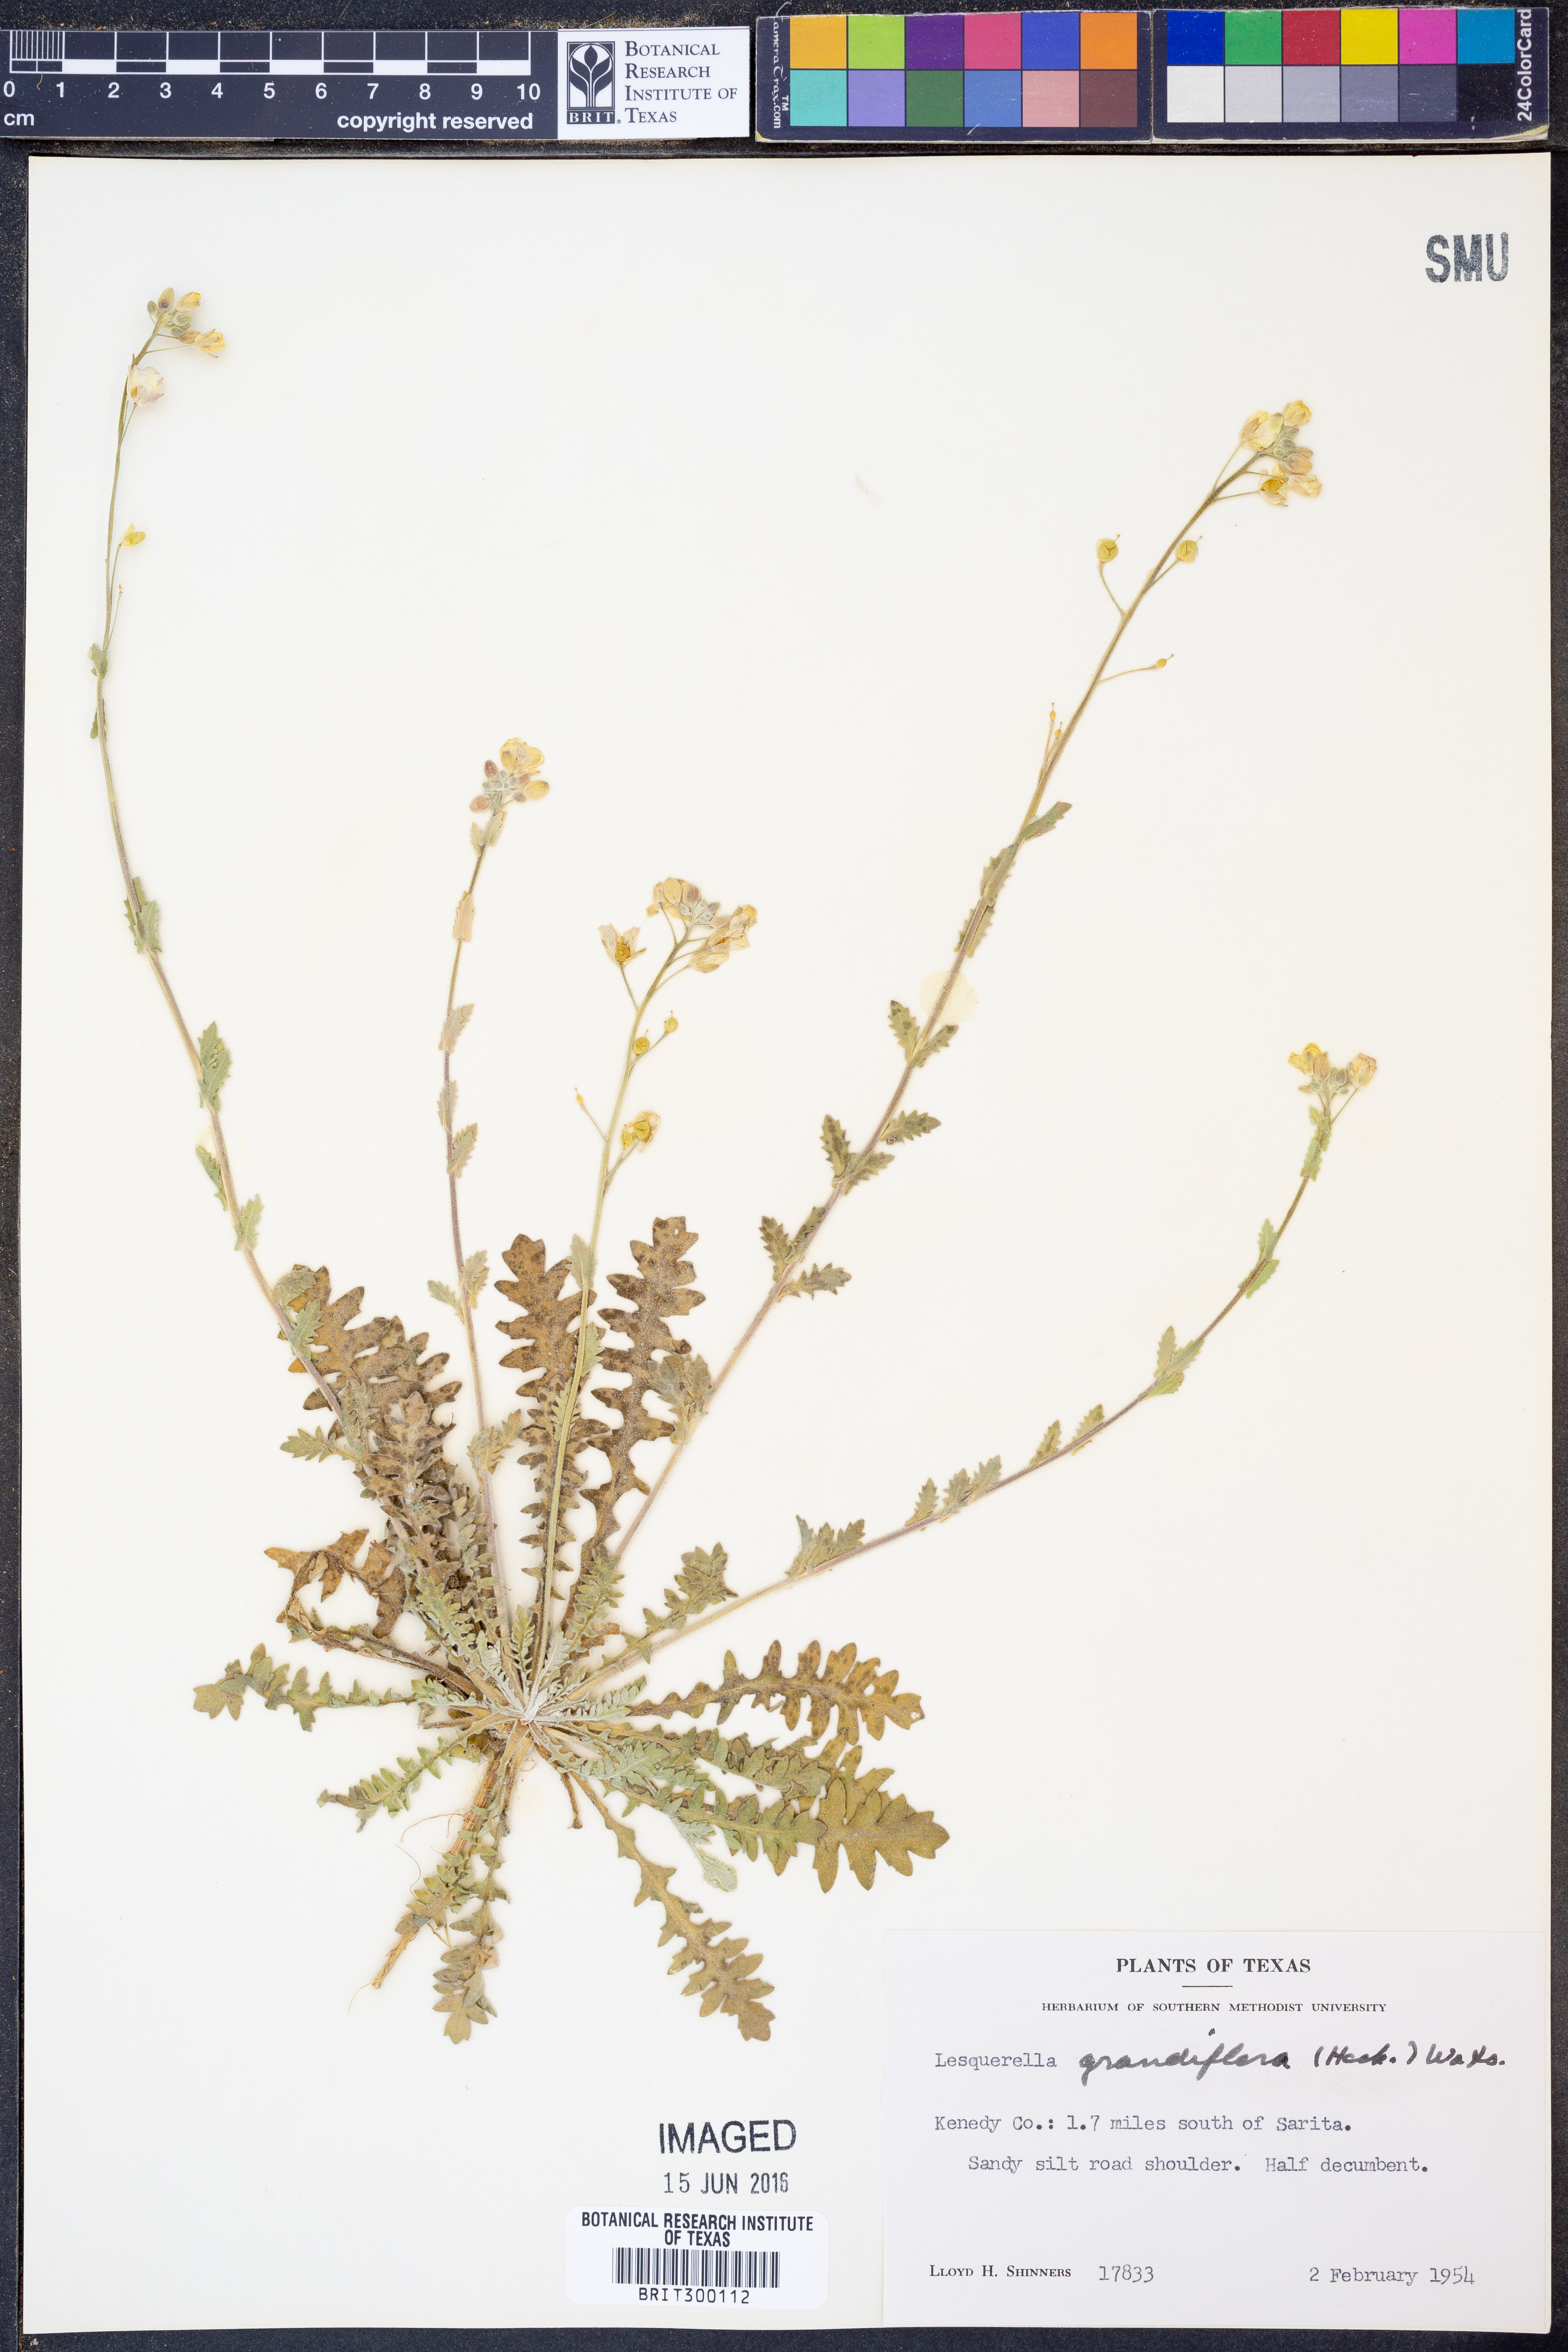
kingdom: Plantae
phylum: Tracheophyta
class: Magnoliopsida
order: Brassicales
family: Brassicaceae
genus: Paysonia
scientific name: Paysonia grandiflora
